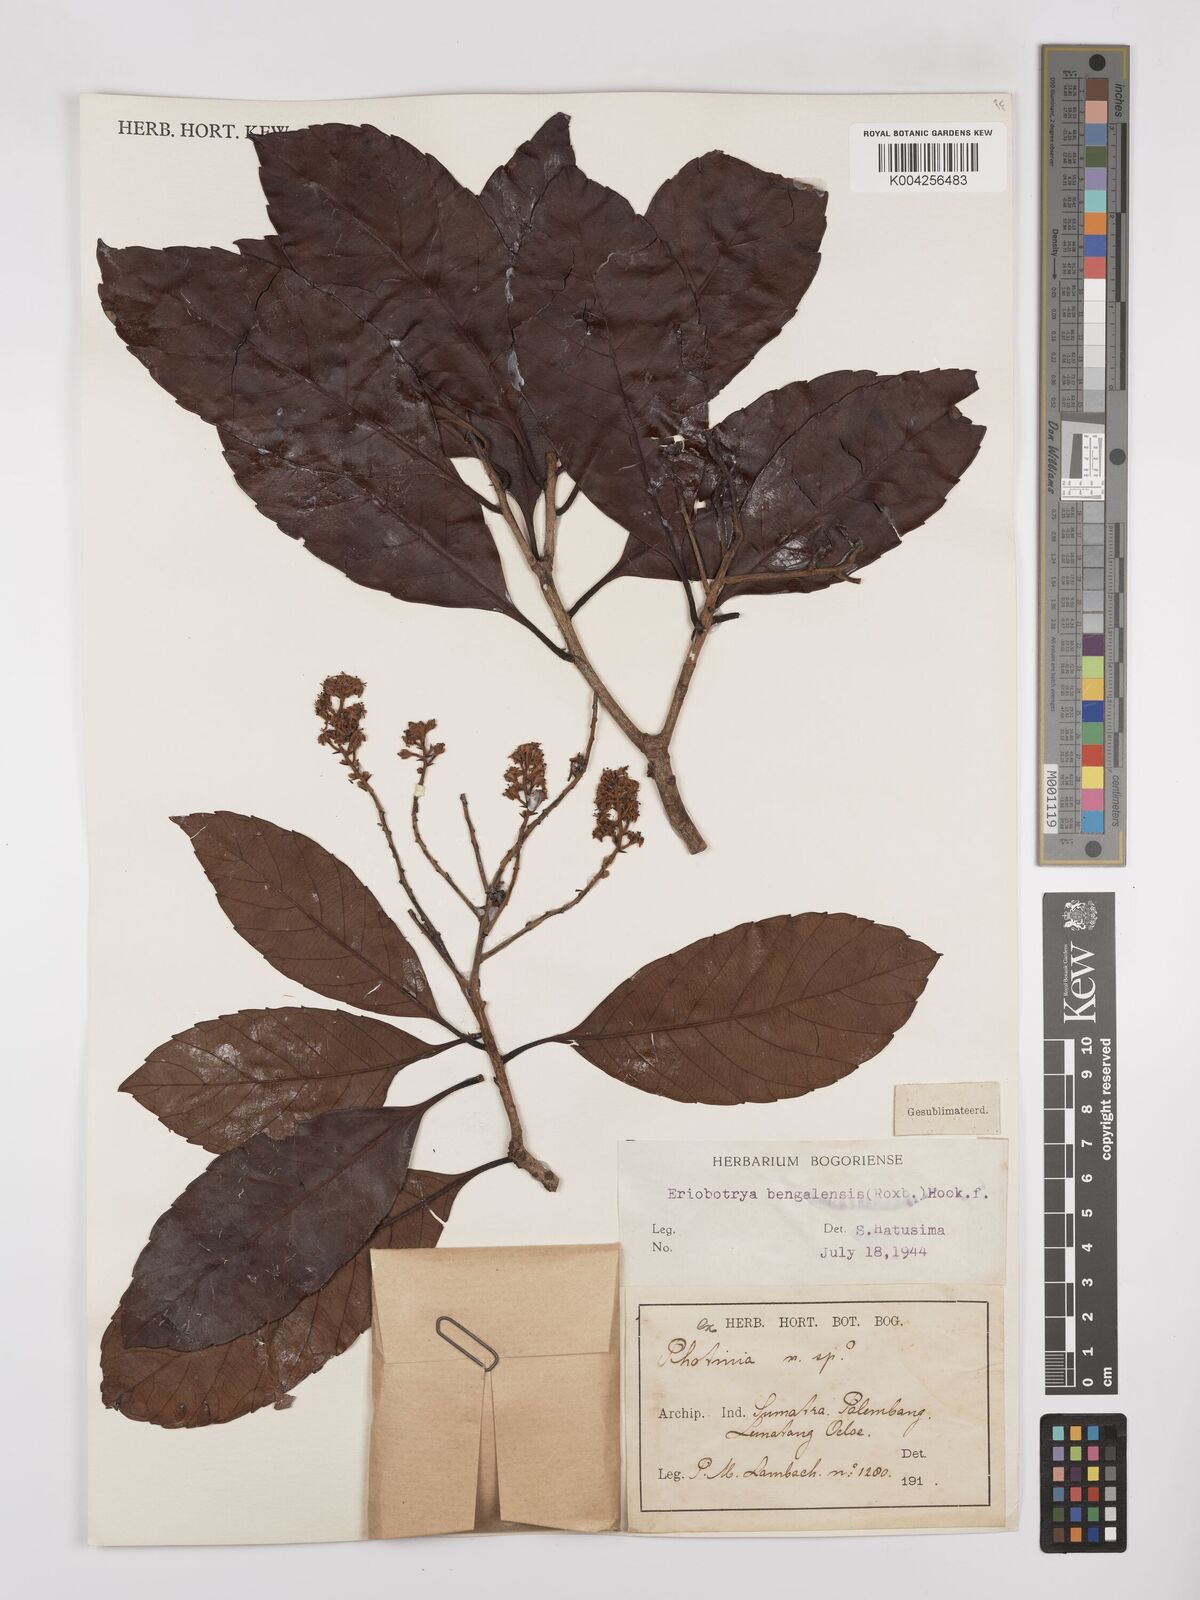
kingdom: Plantae
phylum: Tracheophyta
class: Magnoliopsida
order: Rosales
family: Rosaceae
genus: Rhaphiolepis
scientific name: Rhaphiolepis bengalensis
